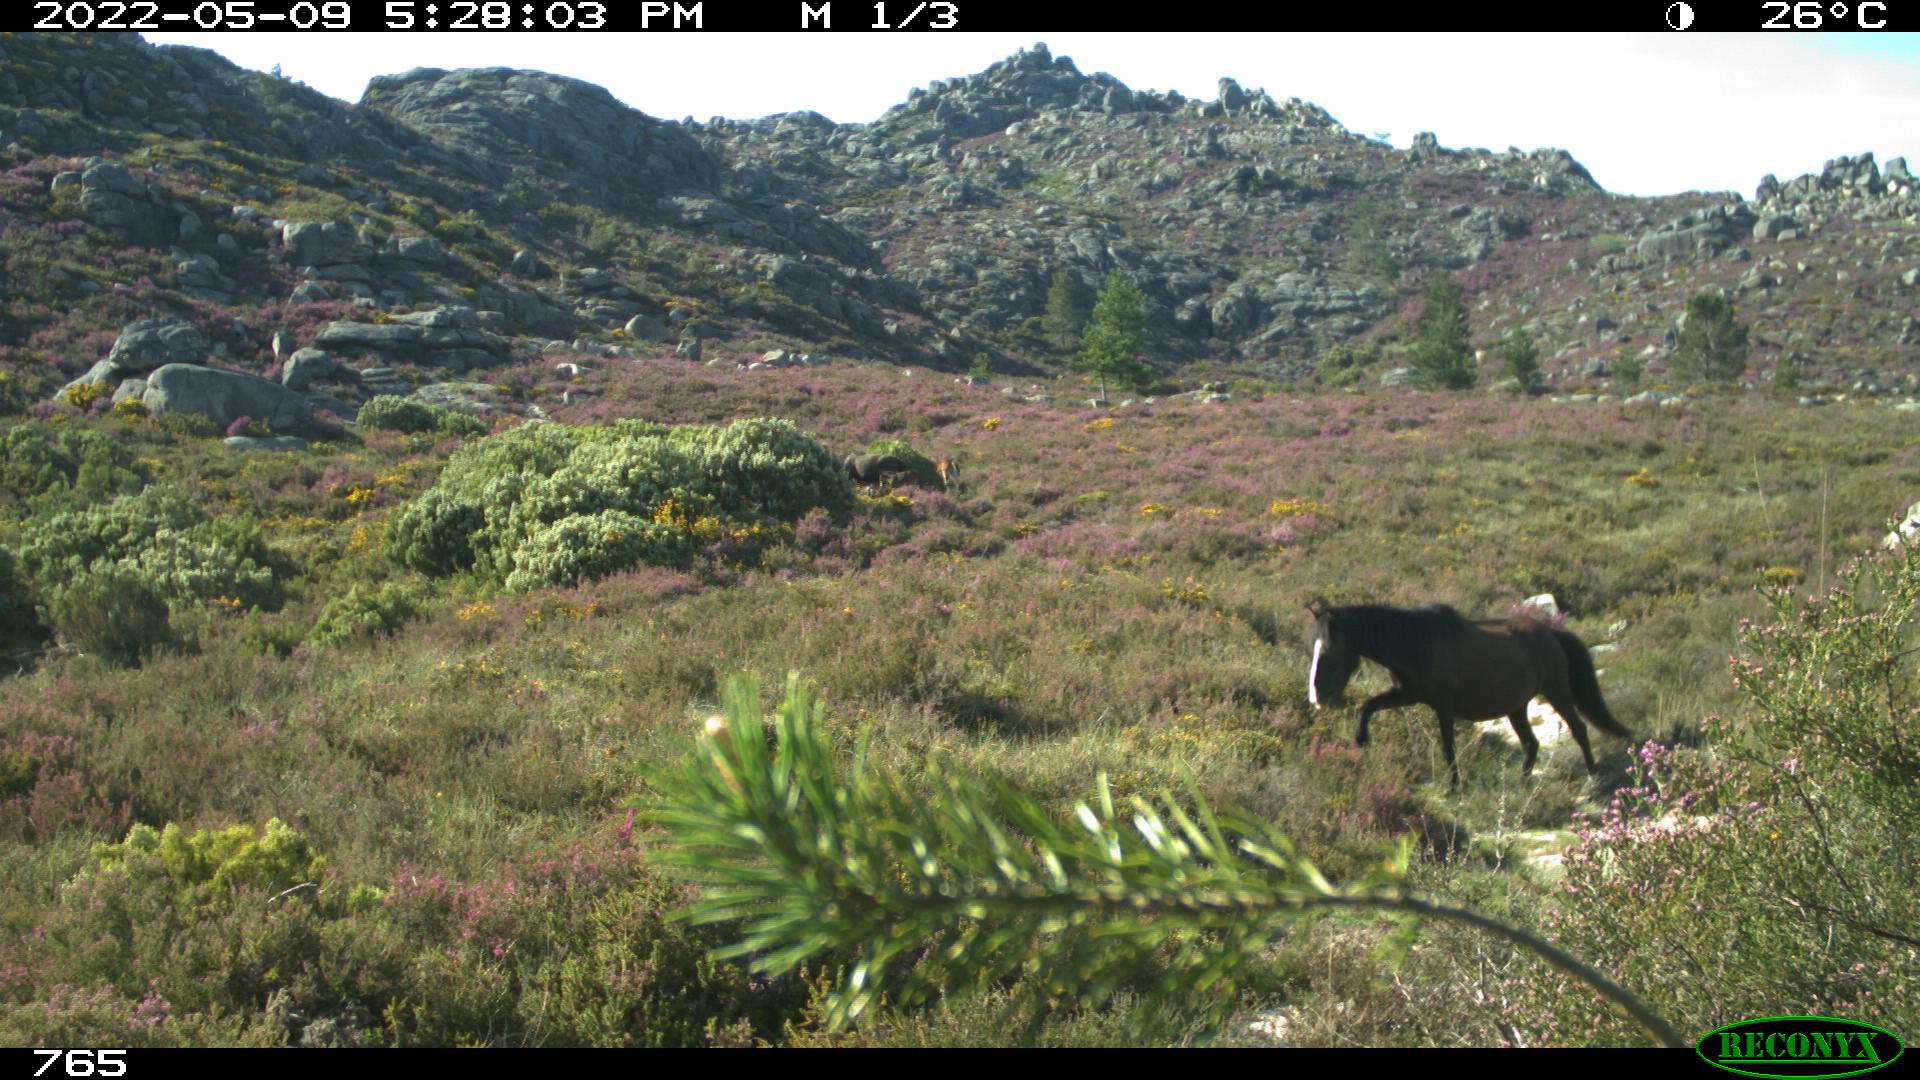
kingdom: Animalia
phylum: Chordata
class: Mammalia
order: Perissodactyla
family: Equidae
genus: Equus
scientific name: Equus caballus
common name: Horse
